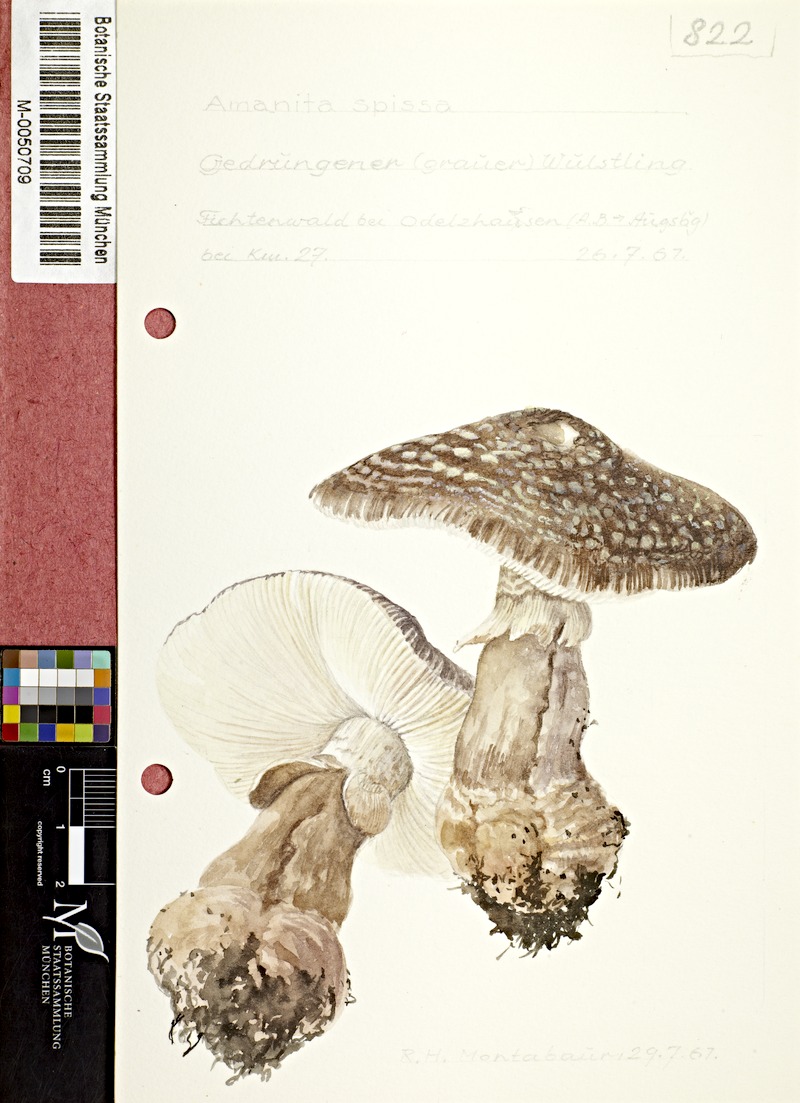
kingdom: Fungi
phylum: Basidiomycota
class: Agaricomycetes
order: Agaricales
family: Amanitaceae
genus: Amanita
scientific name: Amanita excelsa
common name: European false blusher
